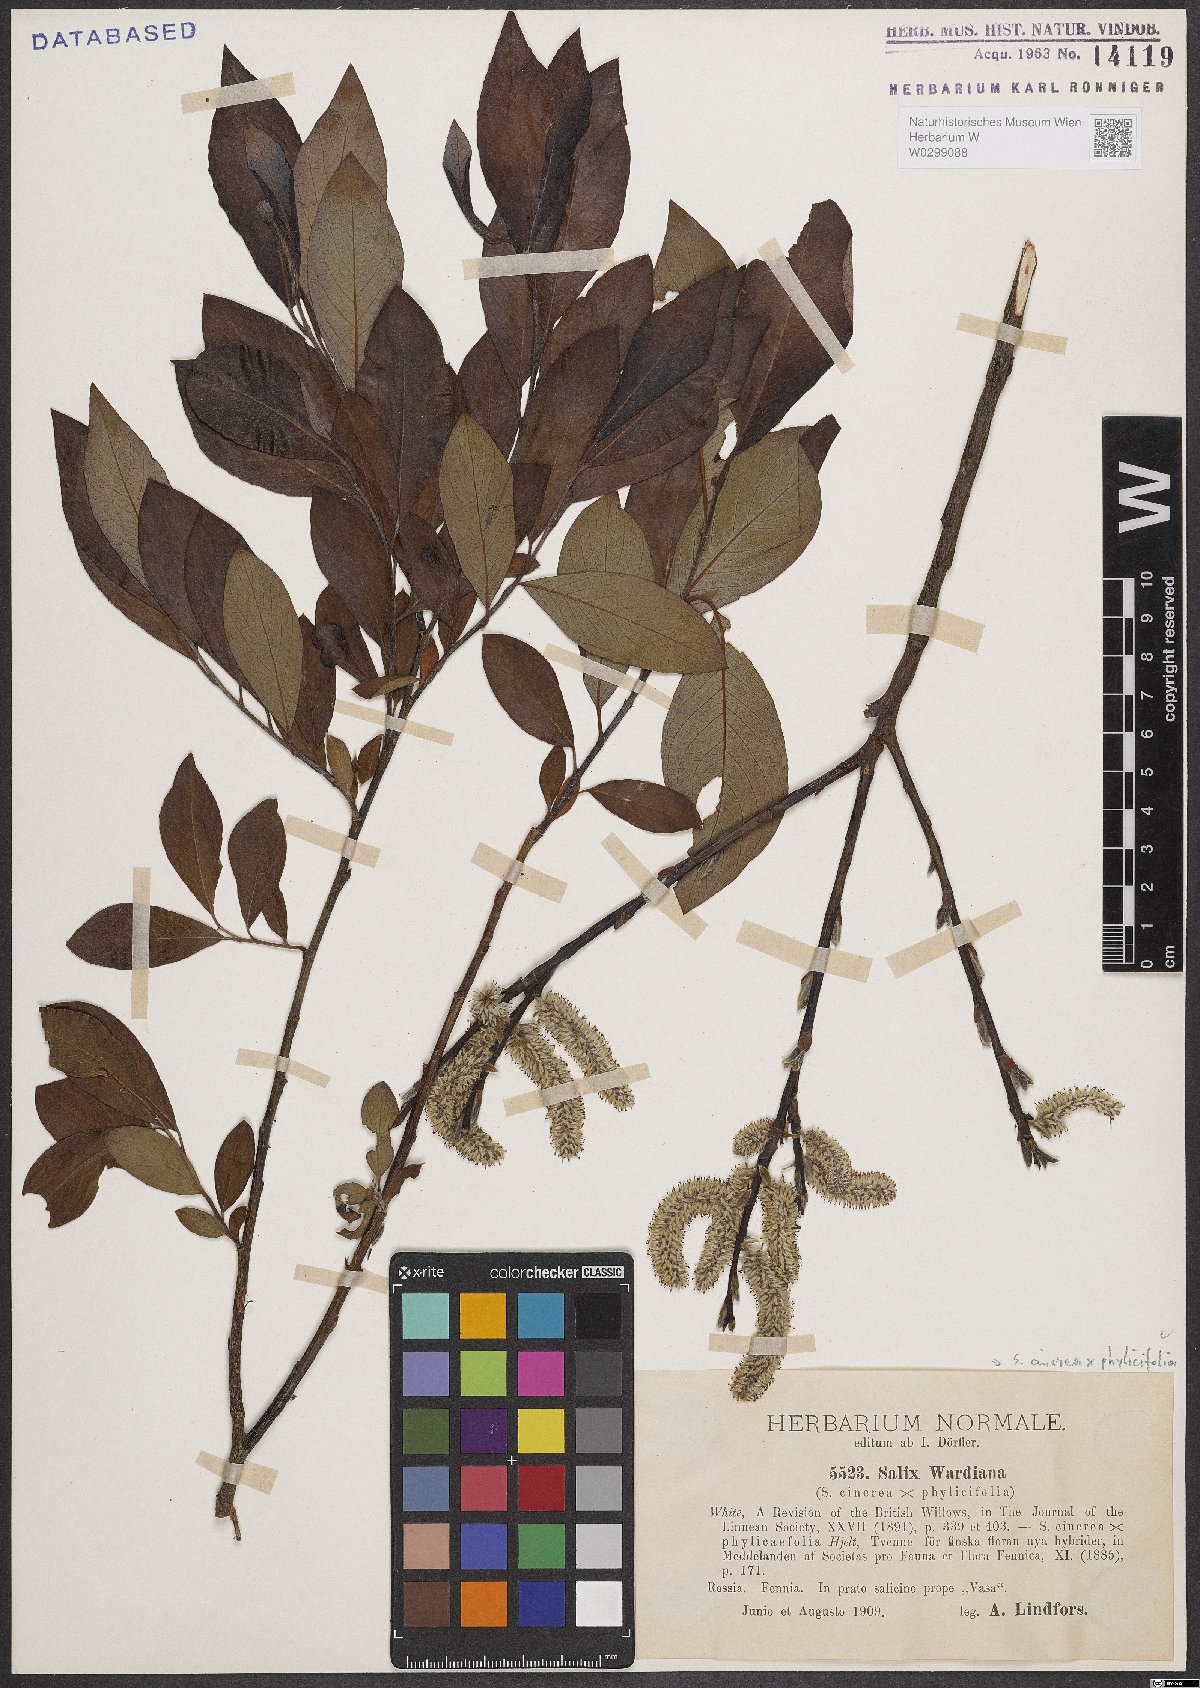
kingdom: Plantae
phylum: Tracheophyta
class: Magnoliopsida
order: Malpighiales
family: Salicaceae
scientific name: Salicaceae
